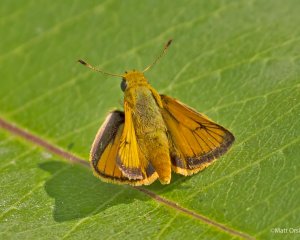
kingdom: Animalia
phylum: Arthropoda
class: Insecta
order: Lepidoptera
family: Hesperiidae
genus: Atrytone
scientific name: Atrytone delaware
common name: Delaware Skipper
